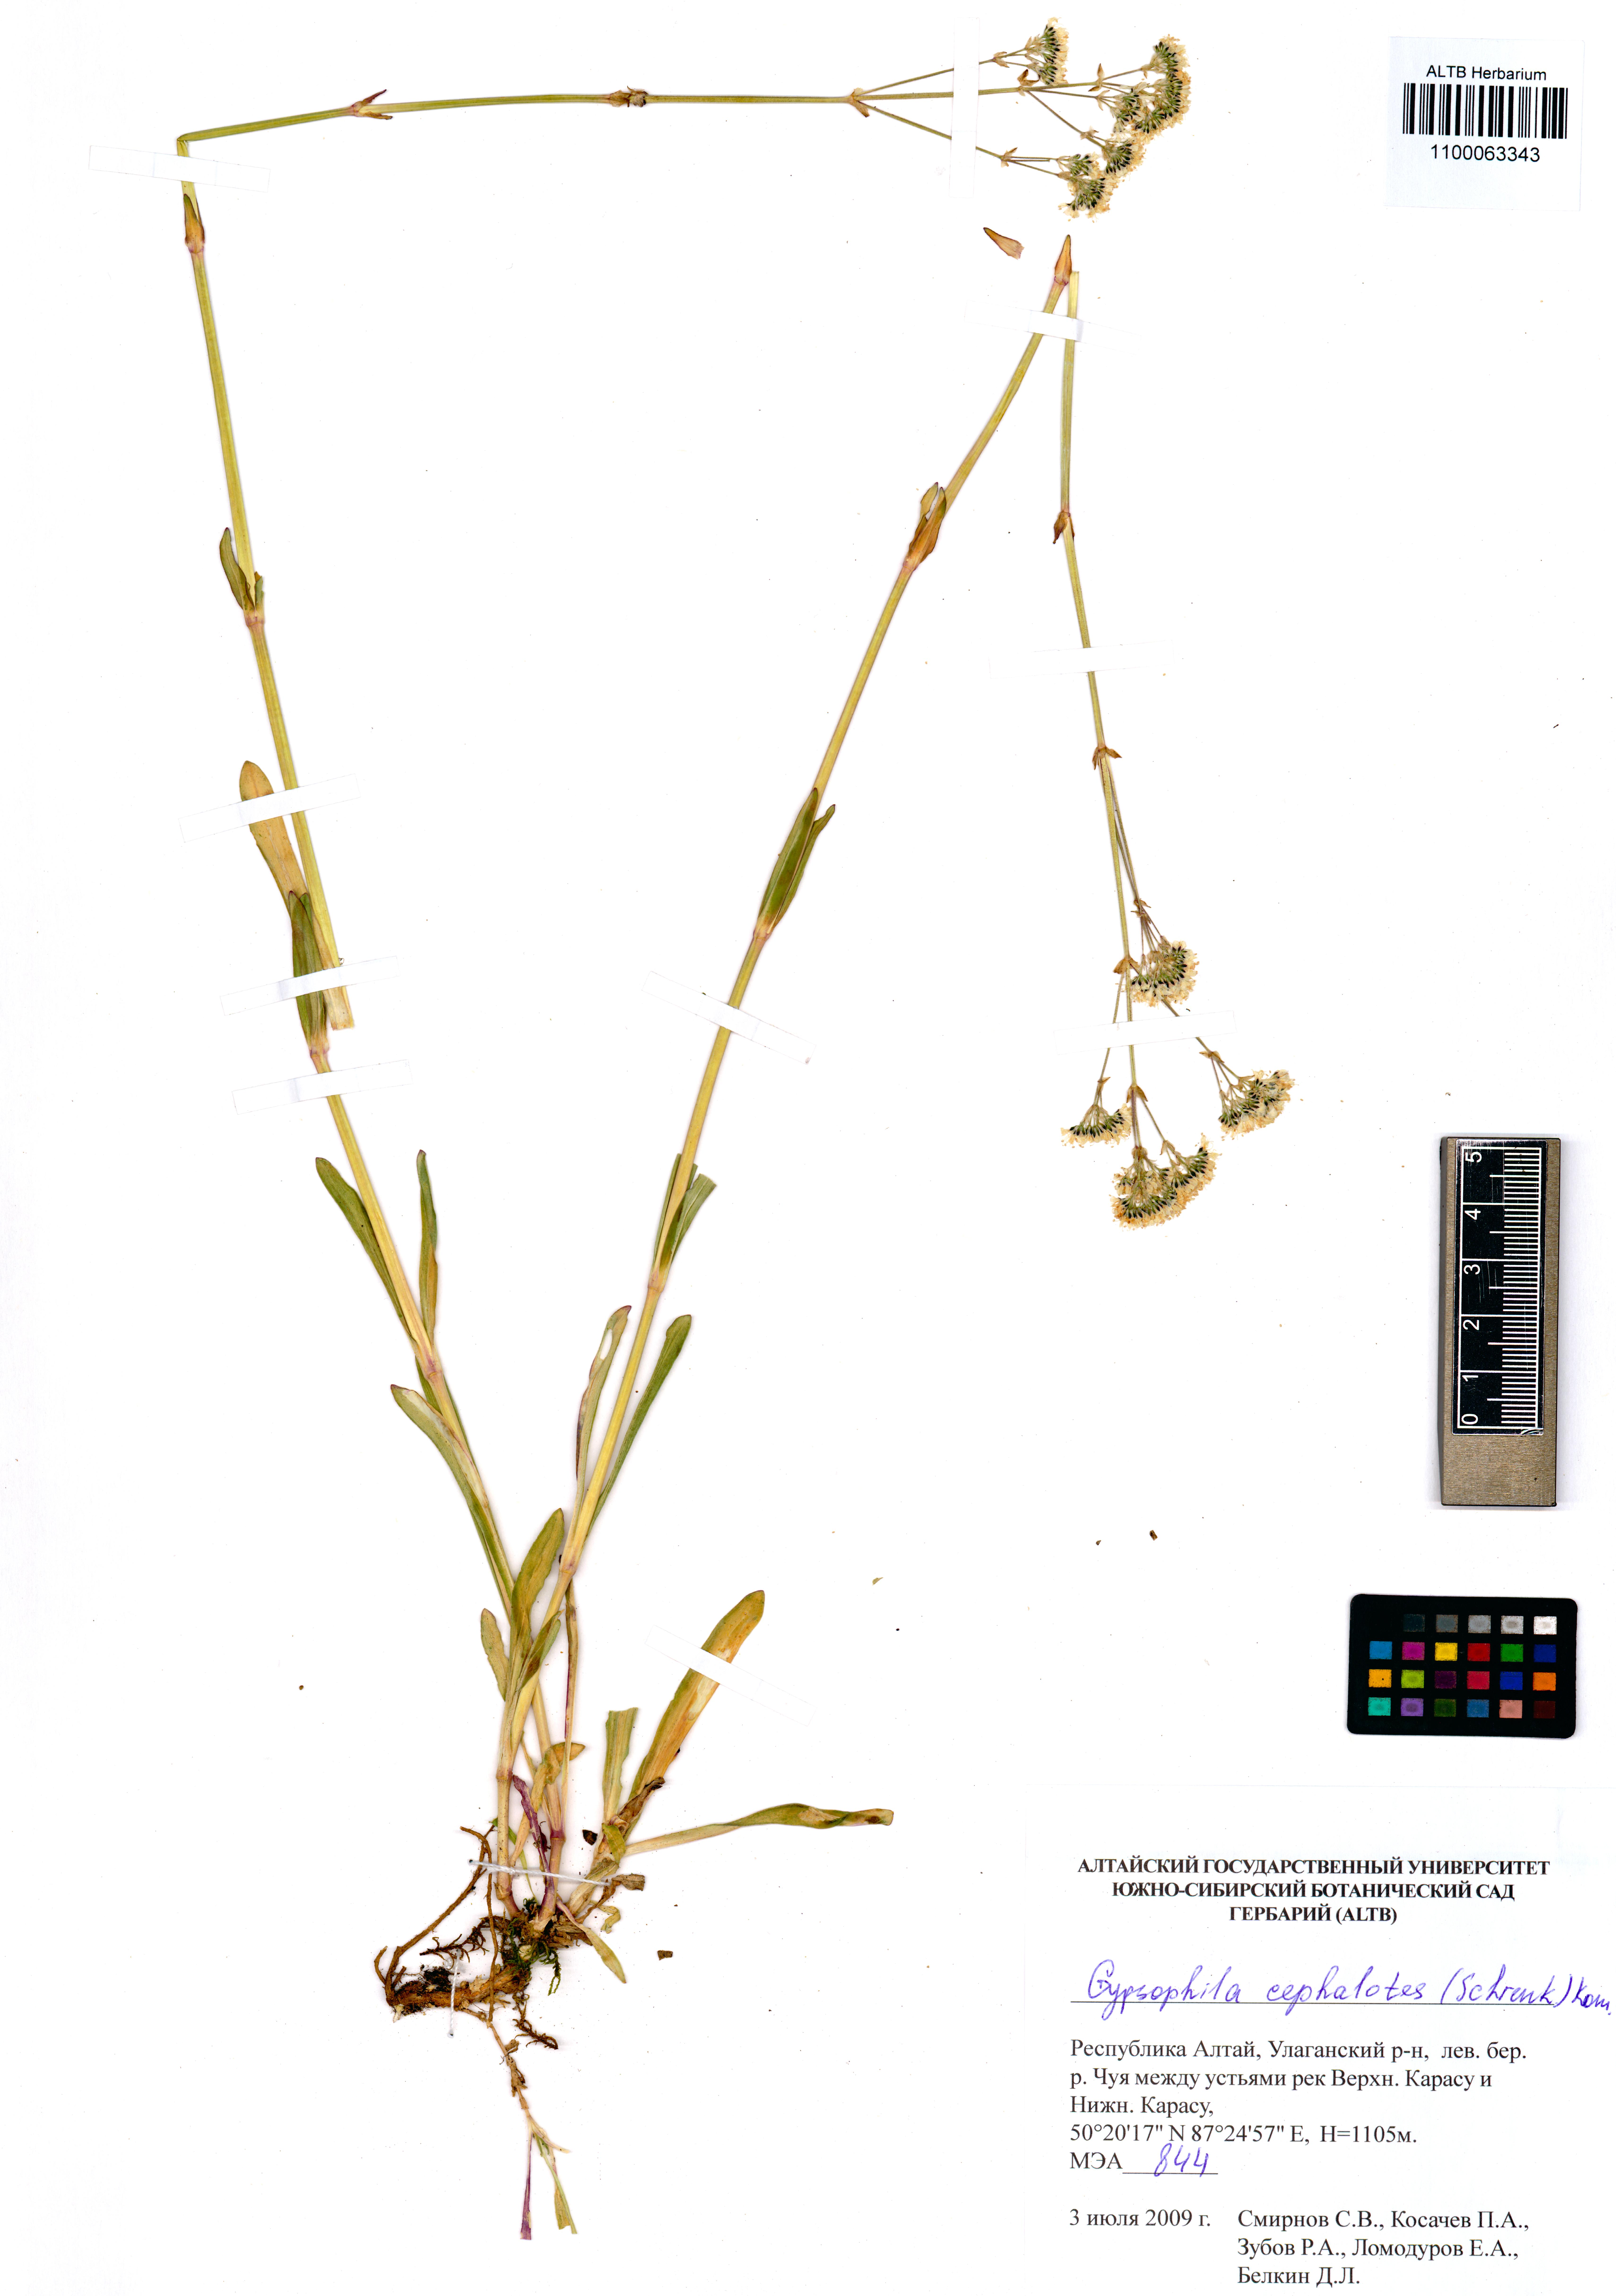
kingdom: Plantae
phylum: Tracheophyta
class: Magnoliopsida
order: Caryophyllales
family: Caryophyllaceae
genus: Gypsophila
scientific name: Gypsophila cephalotes
